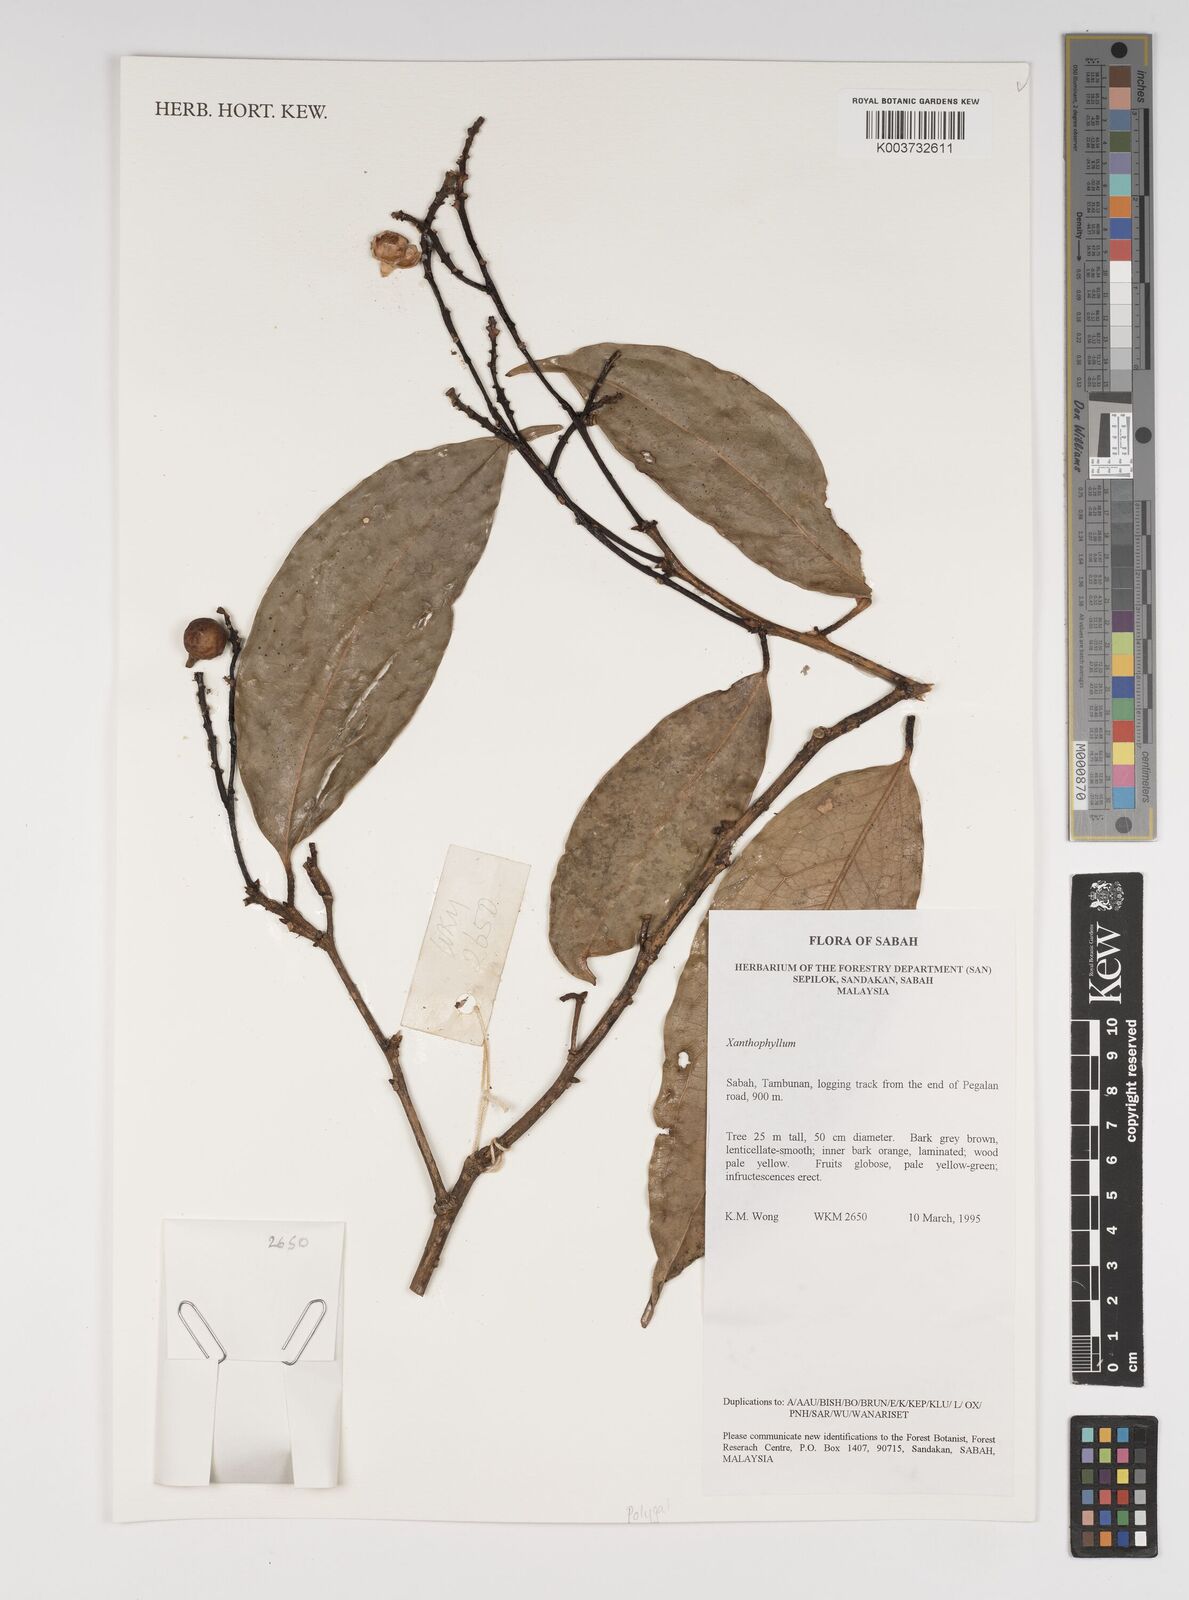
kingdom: Plantae
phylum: Tracheophyta
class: Magnoliopsida
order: Fabales
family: Polygalaceae
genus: Xanthophyllum
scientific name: Xanthophyllum
